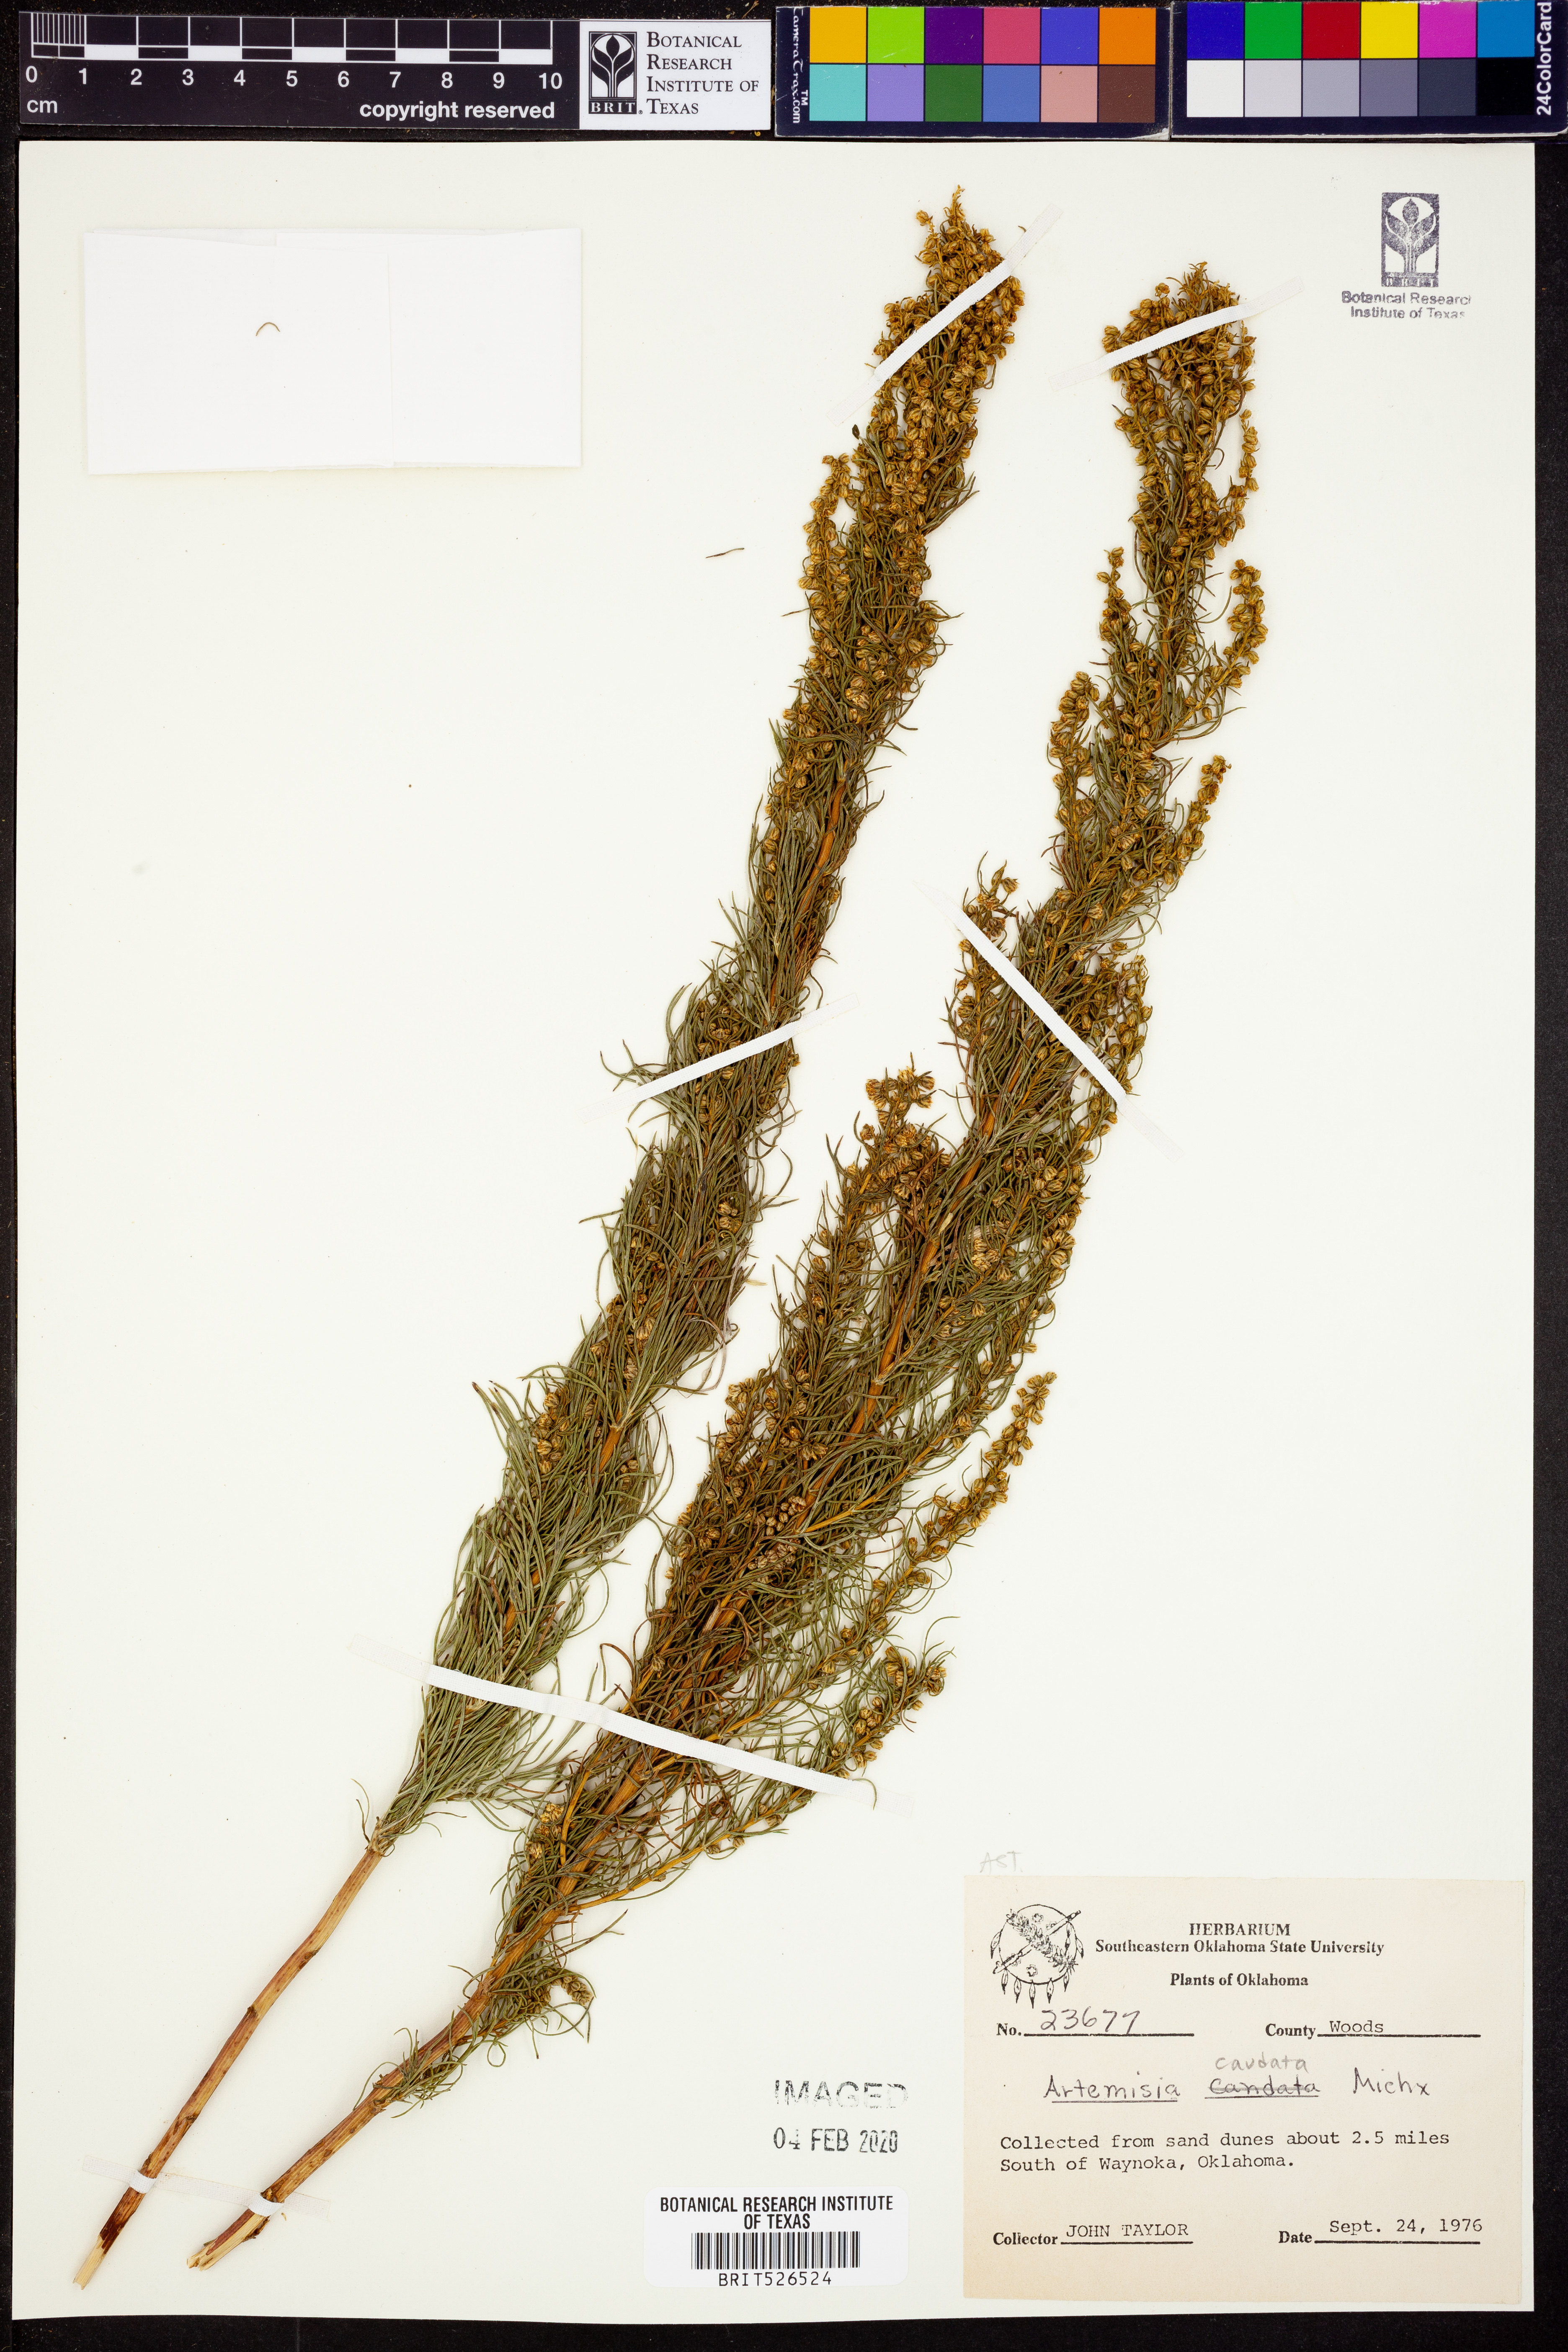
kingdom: Plantae
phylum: Tracheophyta
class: Magnoliopsida
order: Asterales
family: Asteraceae
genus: Artemisia
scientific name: Artemisia campestris
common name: Field wormwood
